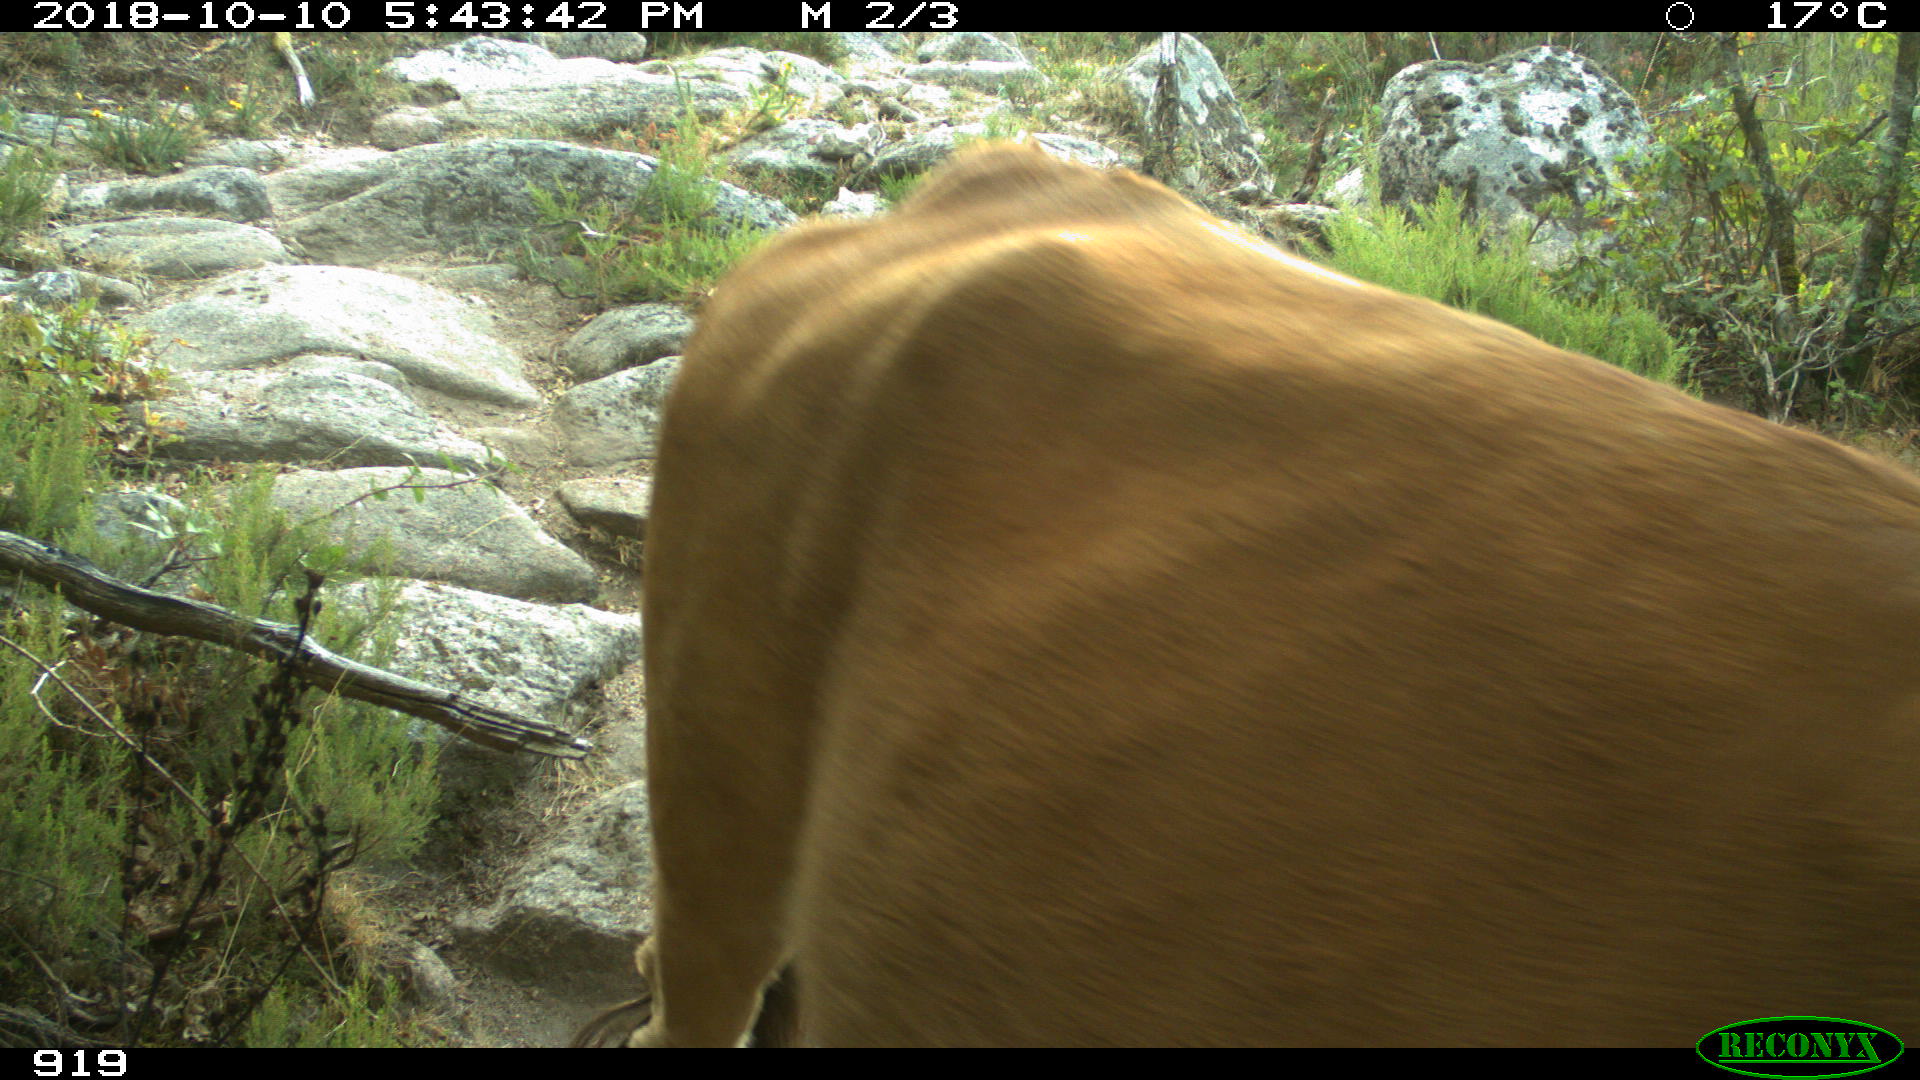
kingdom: Animalia
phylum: Chordata
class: Mammalia
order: Artiodactyla
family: Bovidae
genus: Bos
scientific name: Bos taurus
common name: Domesticated cattle
